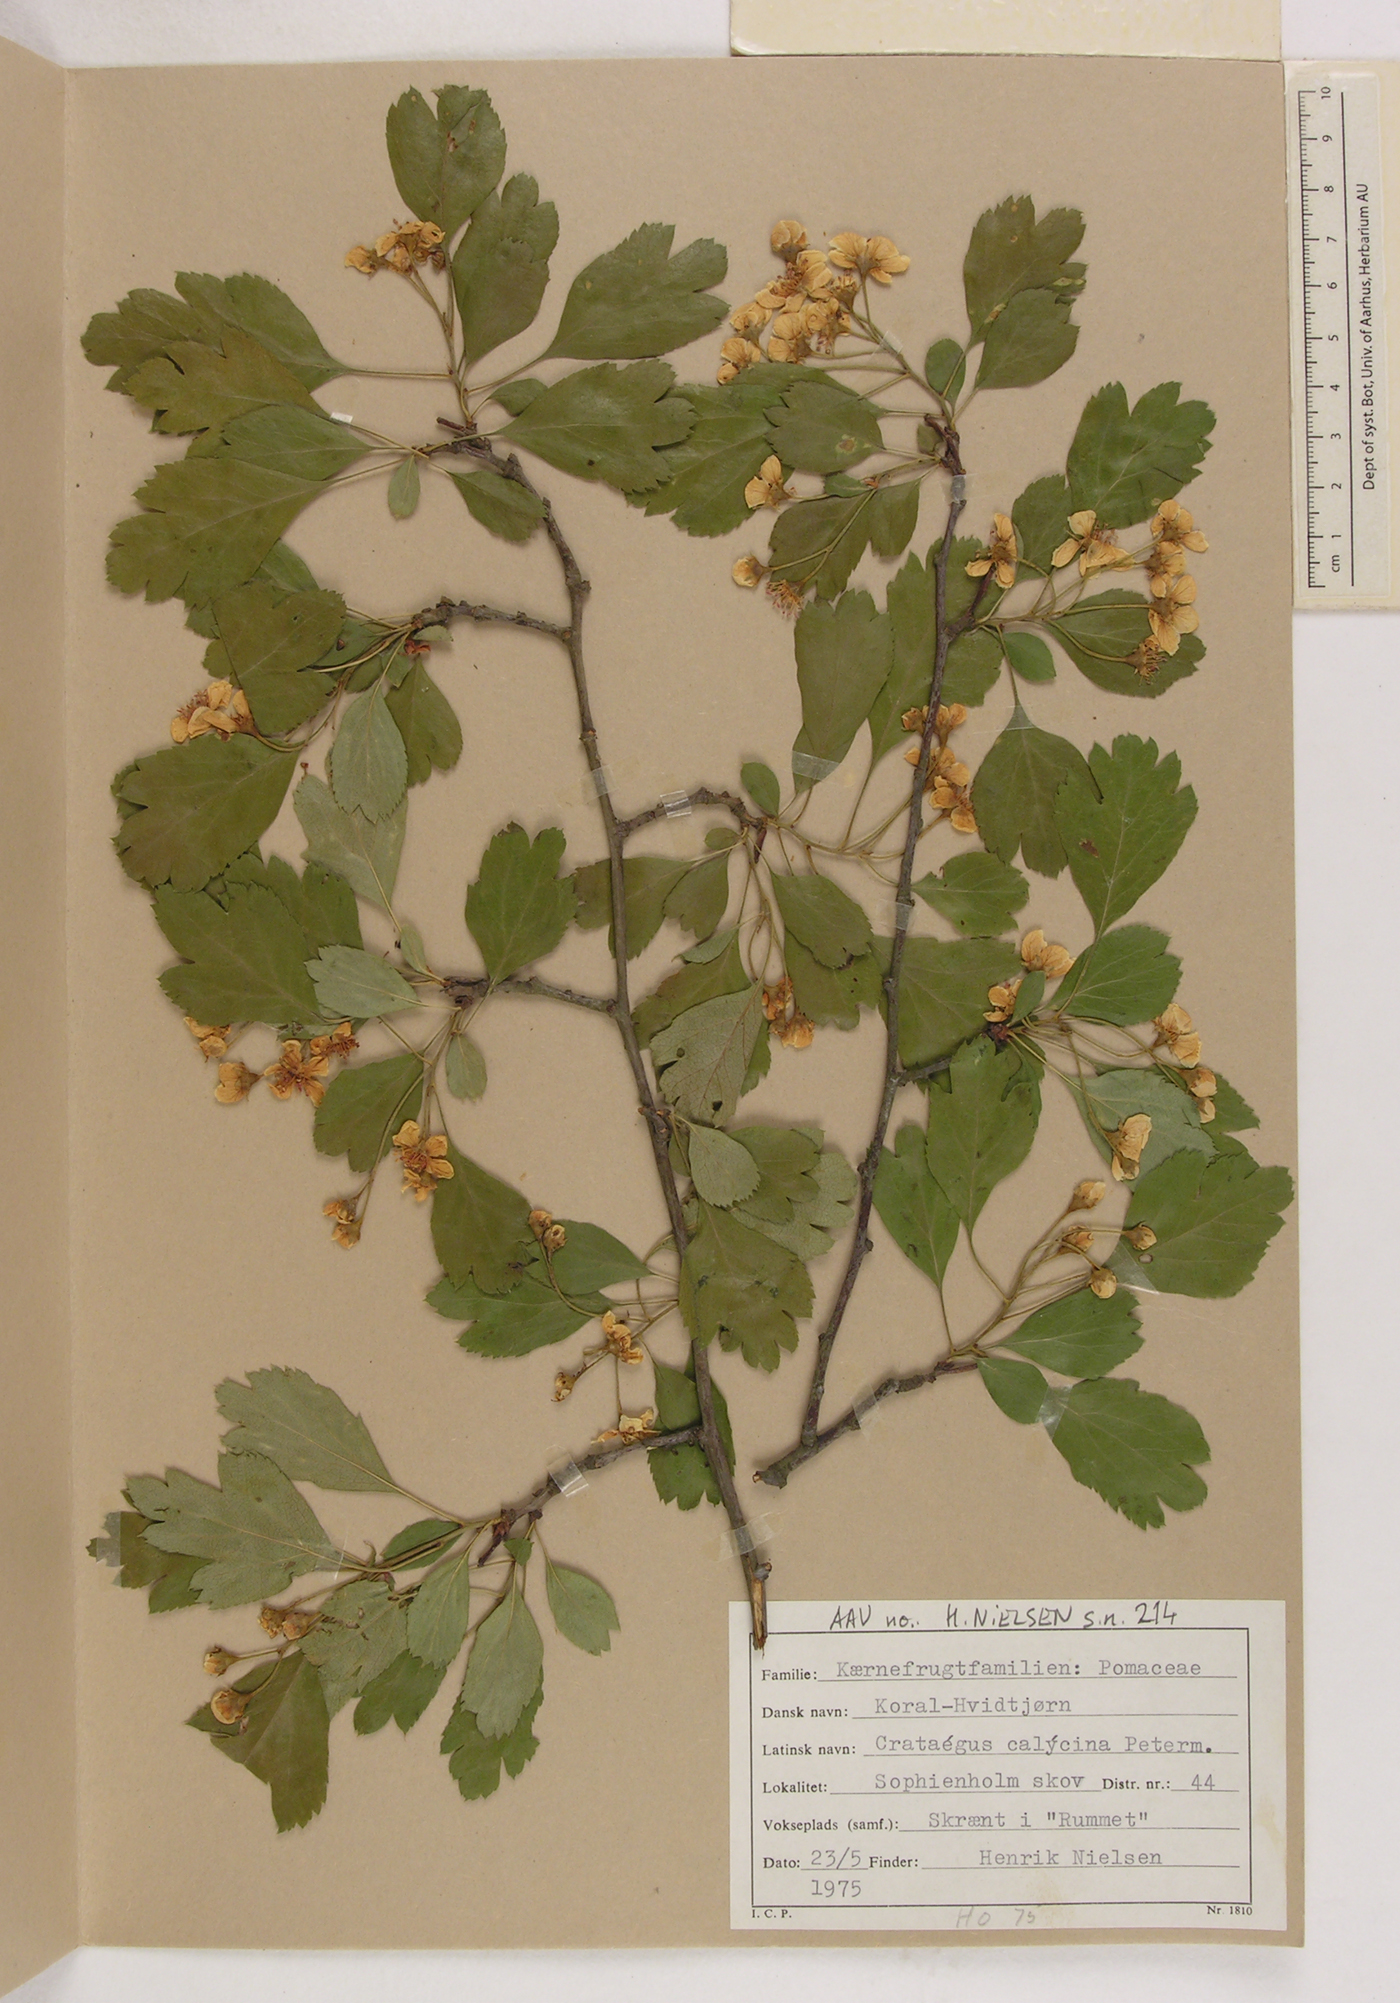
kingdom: Plantae
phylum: Tracheophyta
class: Magnoliopsida
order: Rosales
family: Rosaceae
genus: Crataegus
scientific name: Crataegus calycina
